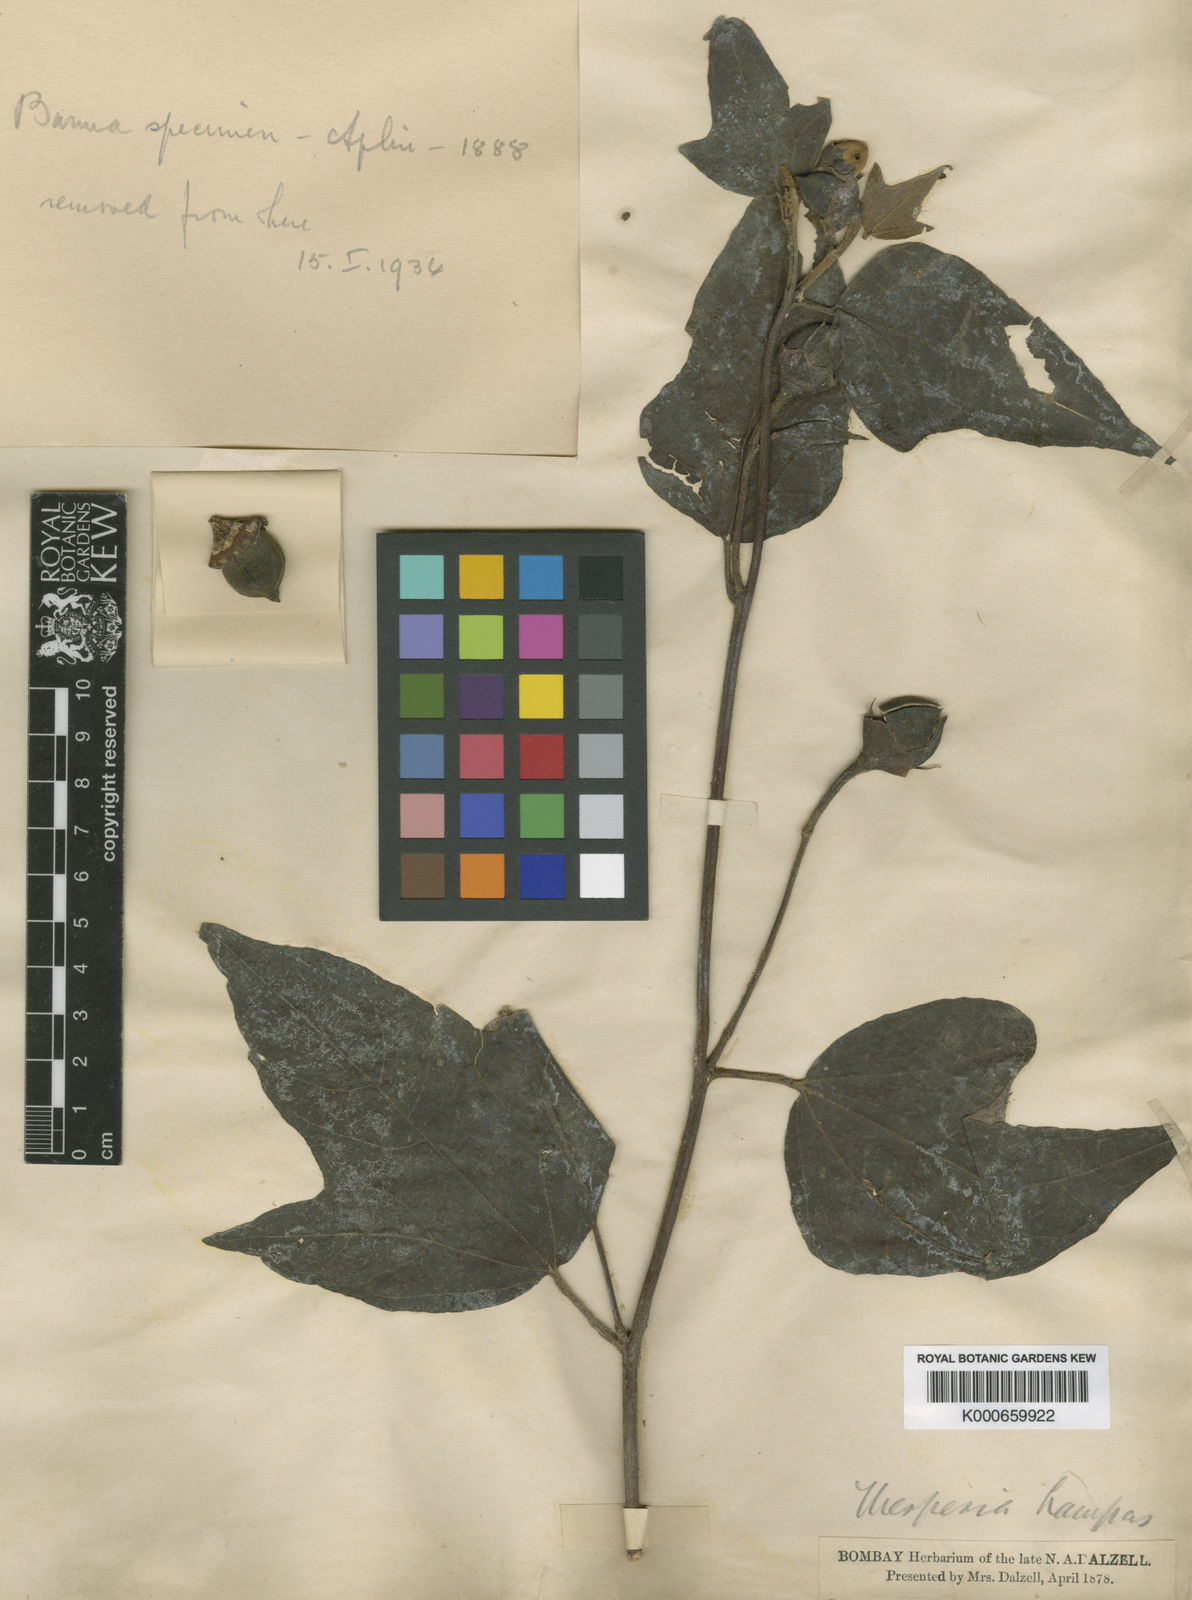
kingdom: Plantae
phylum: Tracheophyta
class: Magnoliopsida
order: Malvales
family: Malvaceae
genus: Thespesia
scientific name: Thespesia lampas
